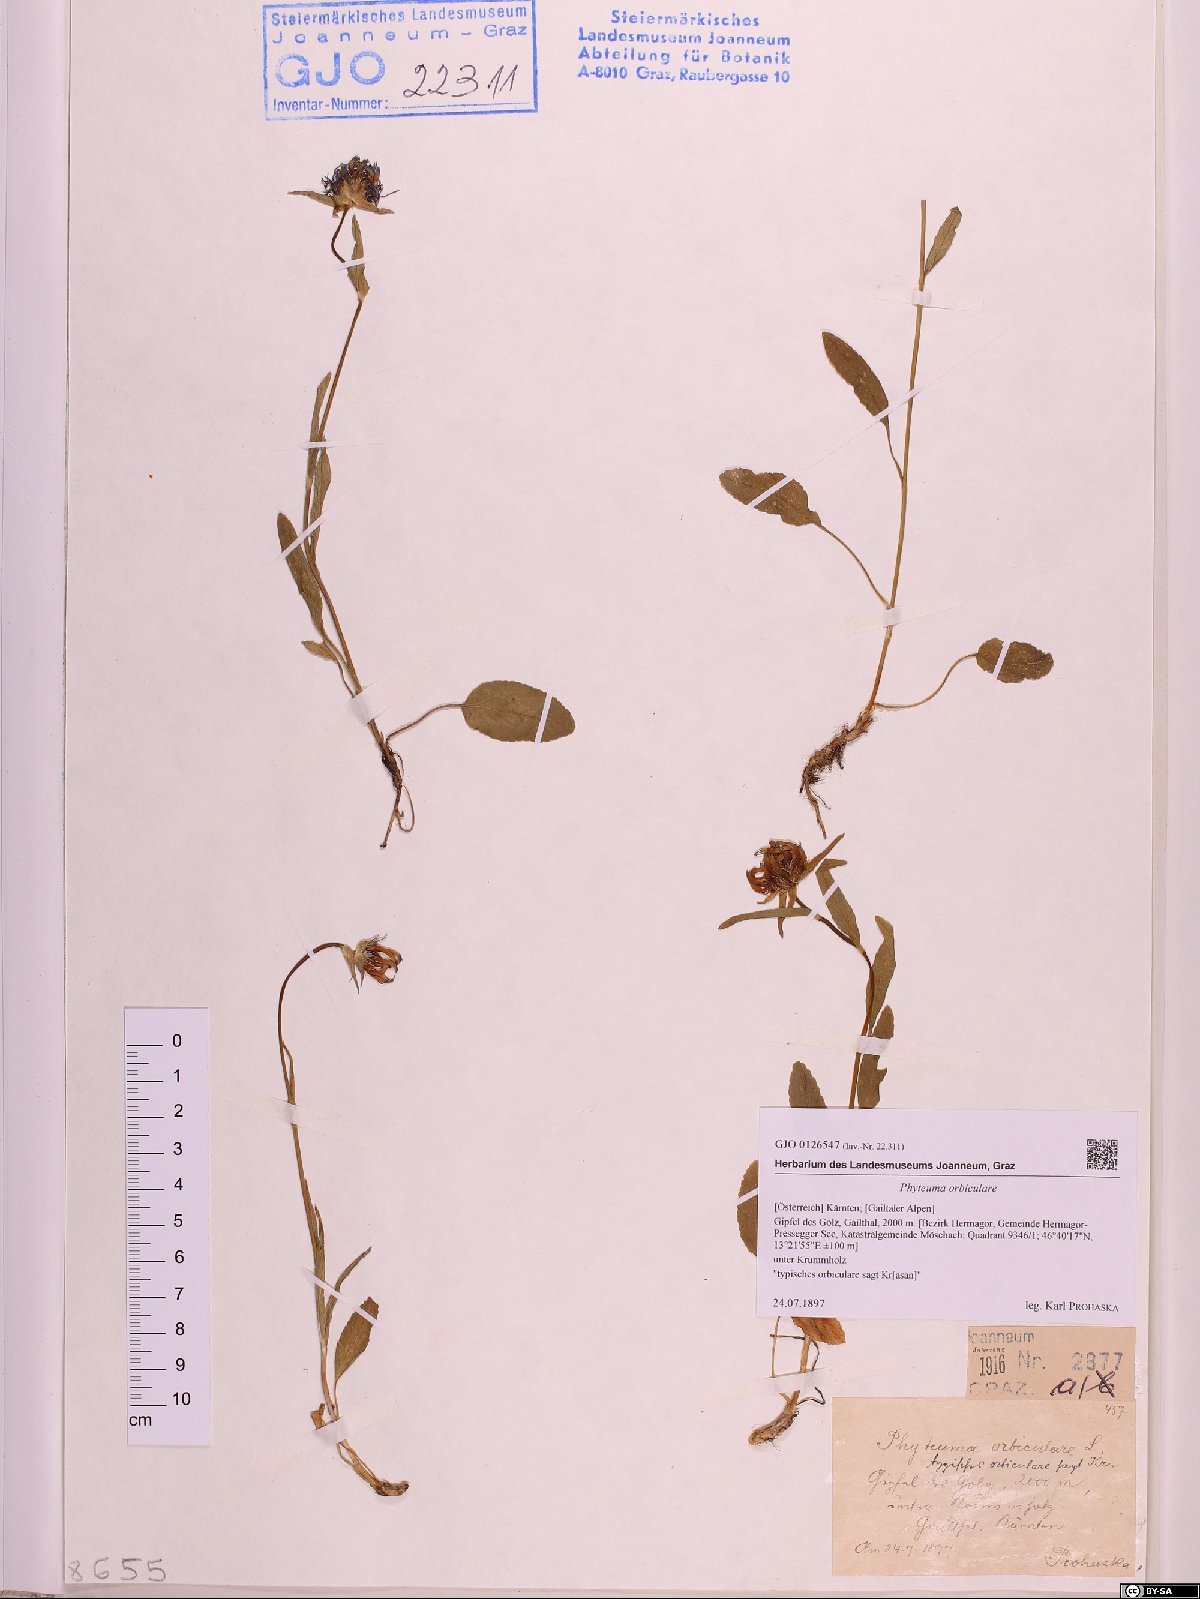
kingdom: Plantae
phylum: Tracheophyta
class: Magnoliopsida
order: Asterales
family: Campanulaceae
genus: Phyteuma
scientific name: Phyteuma orbiculare
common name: Round-headed rampion
